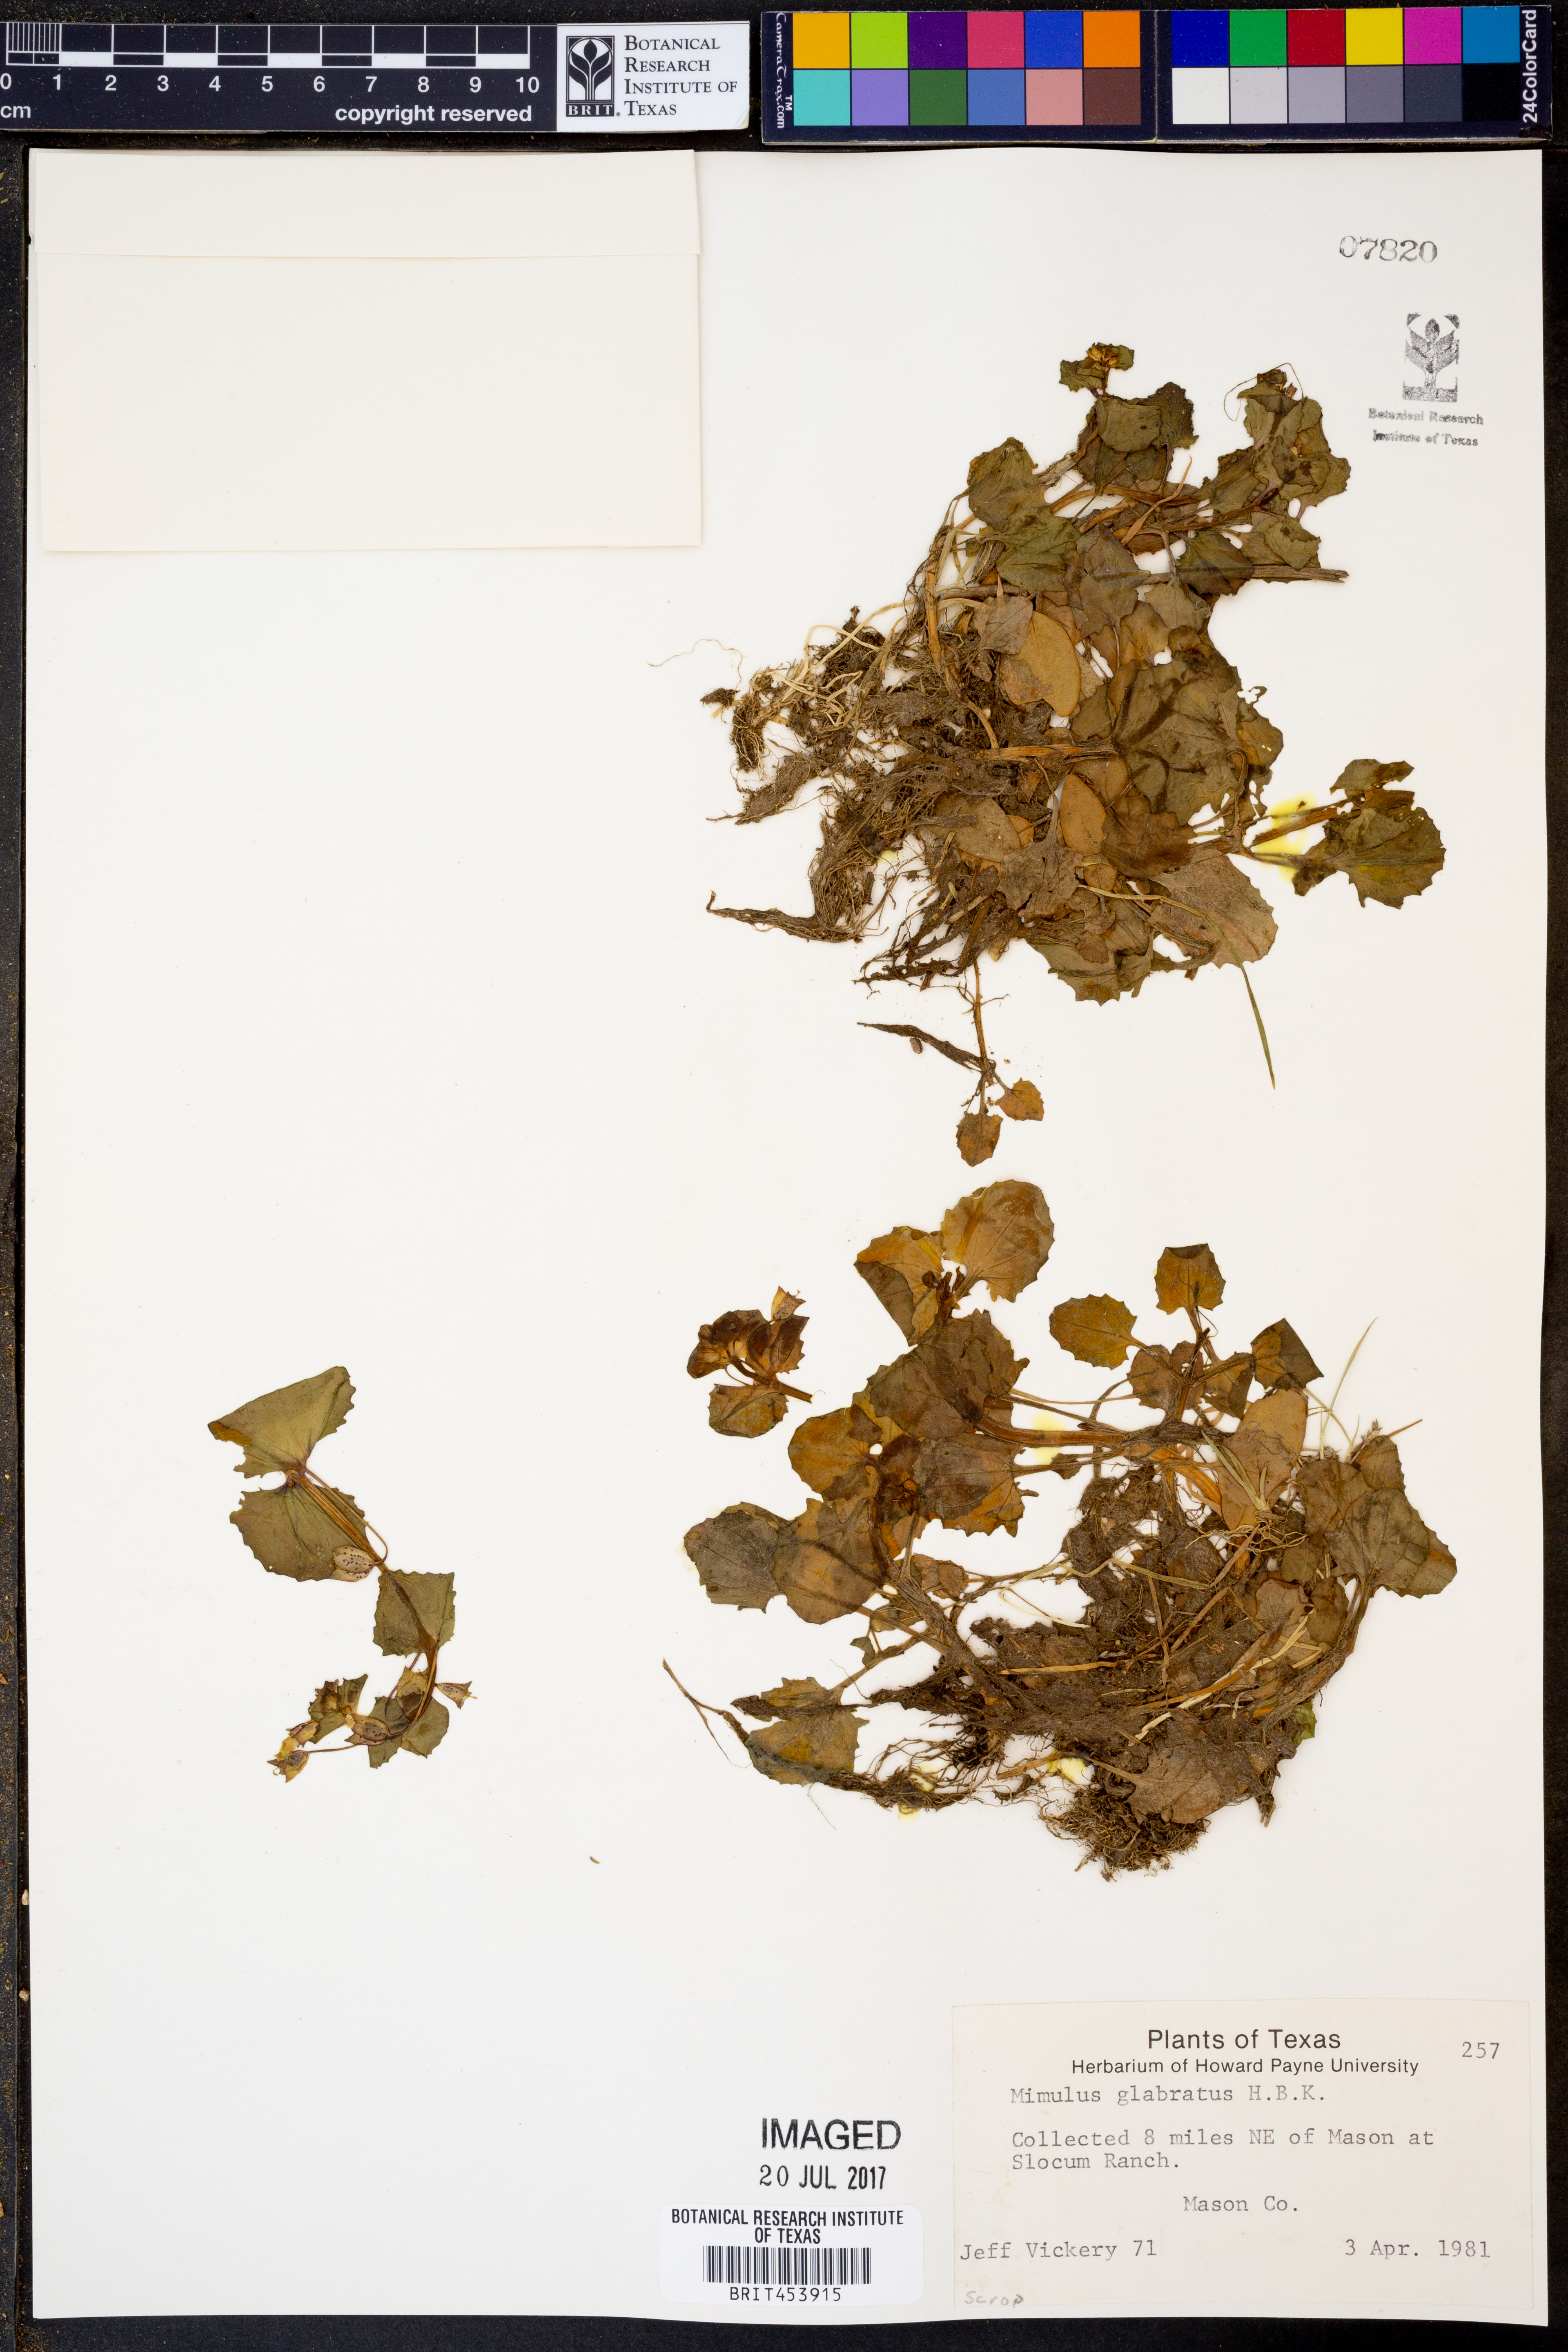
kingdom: Plantae
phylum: Tracheophyta
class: Magnoliopsida
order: Lamiales
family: Phrymaceae
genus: Erythranthe
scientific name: Erythranthe glabrata
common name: Round-leaved monkeyflower
